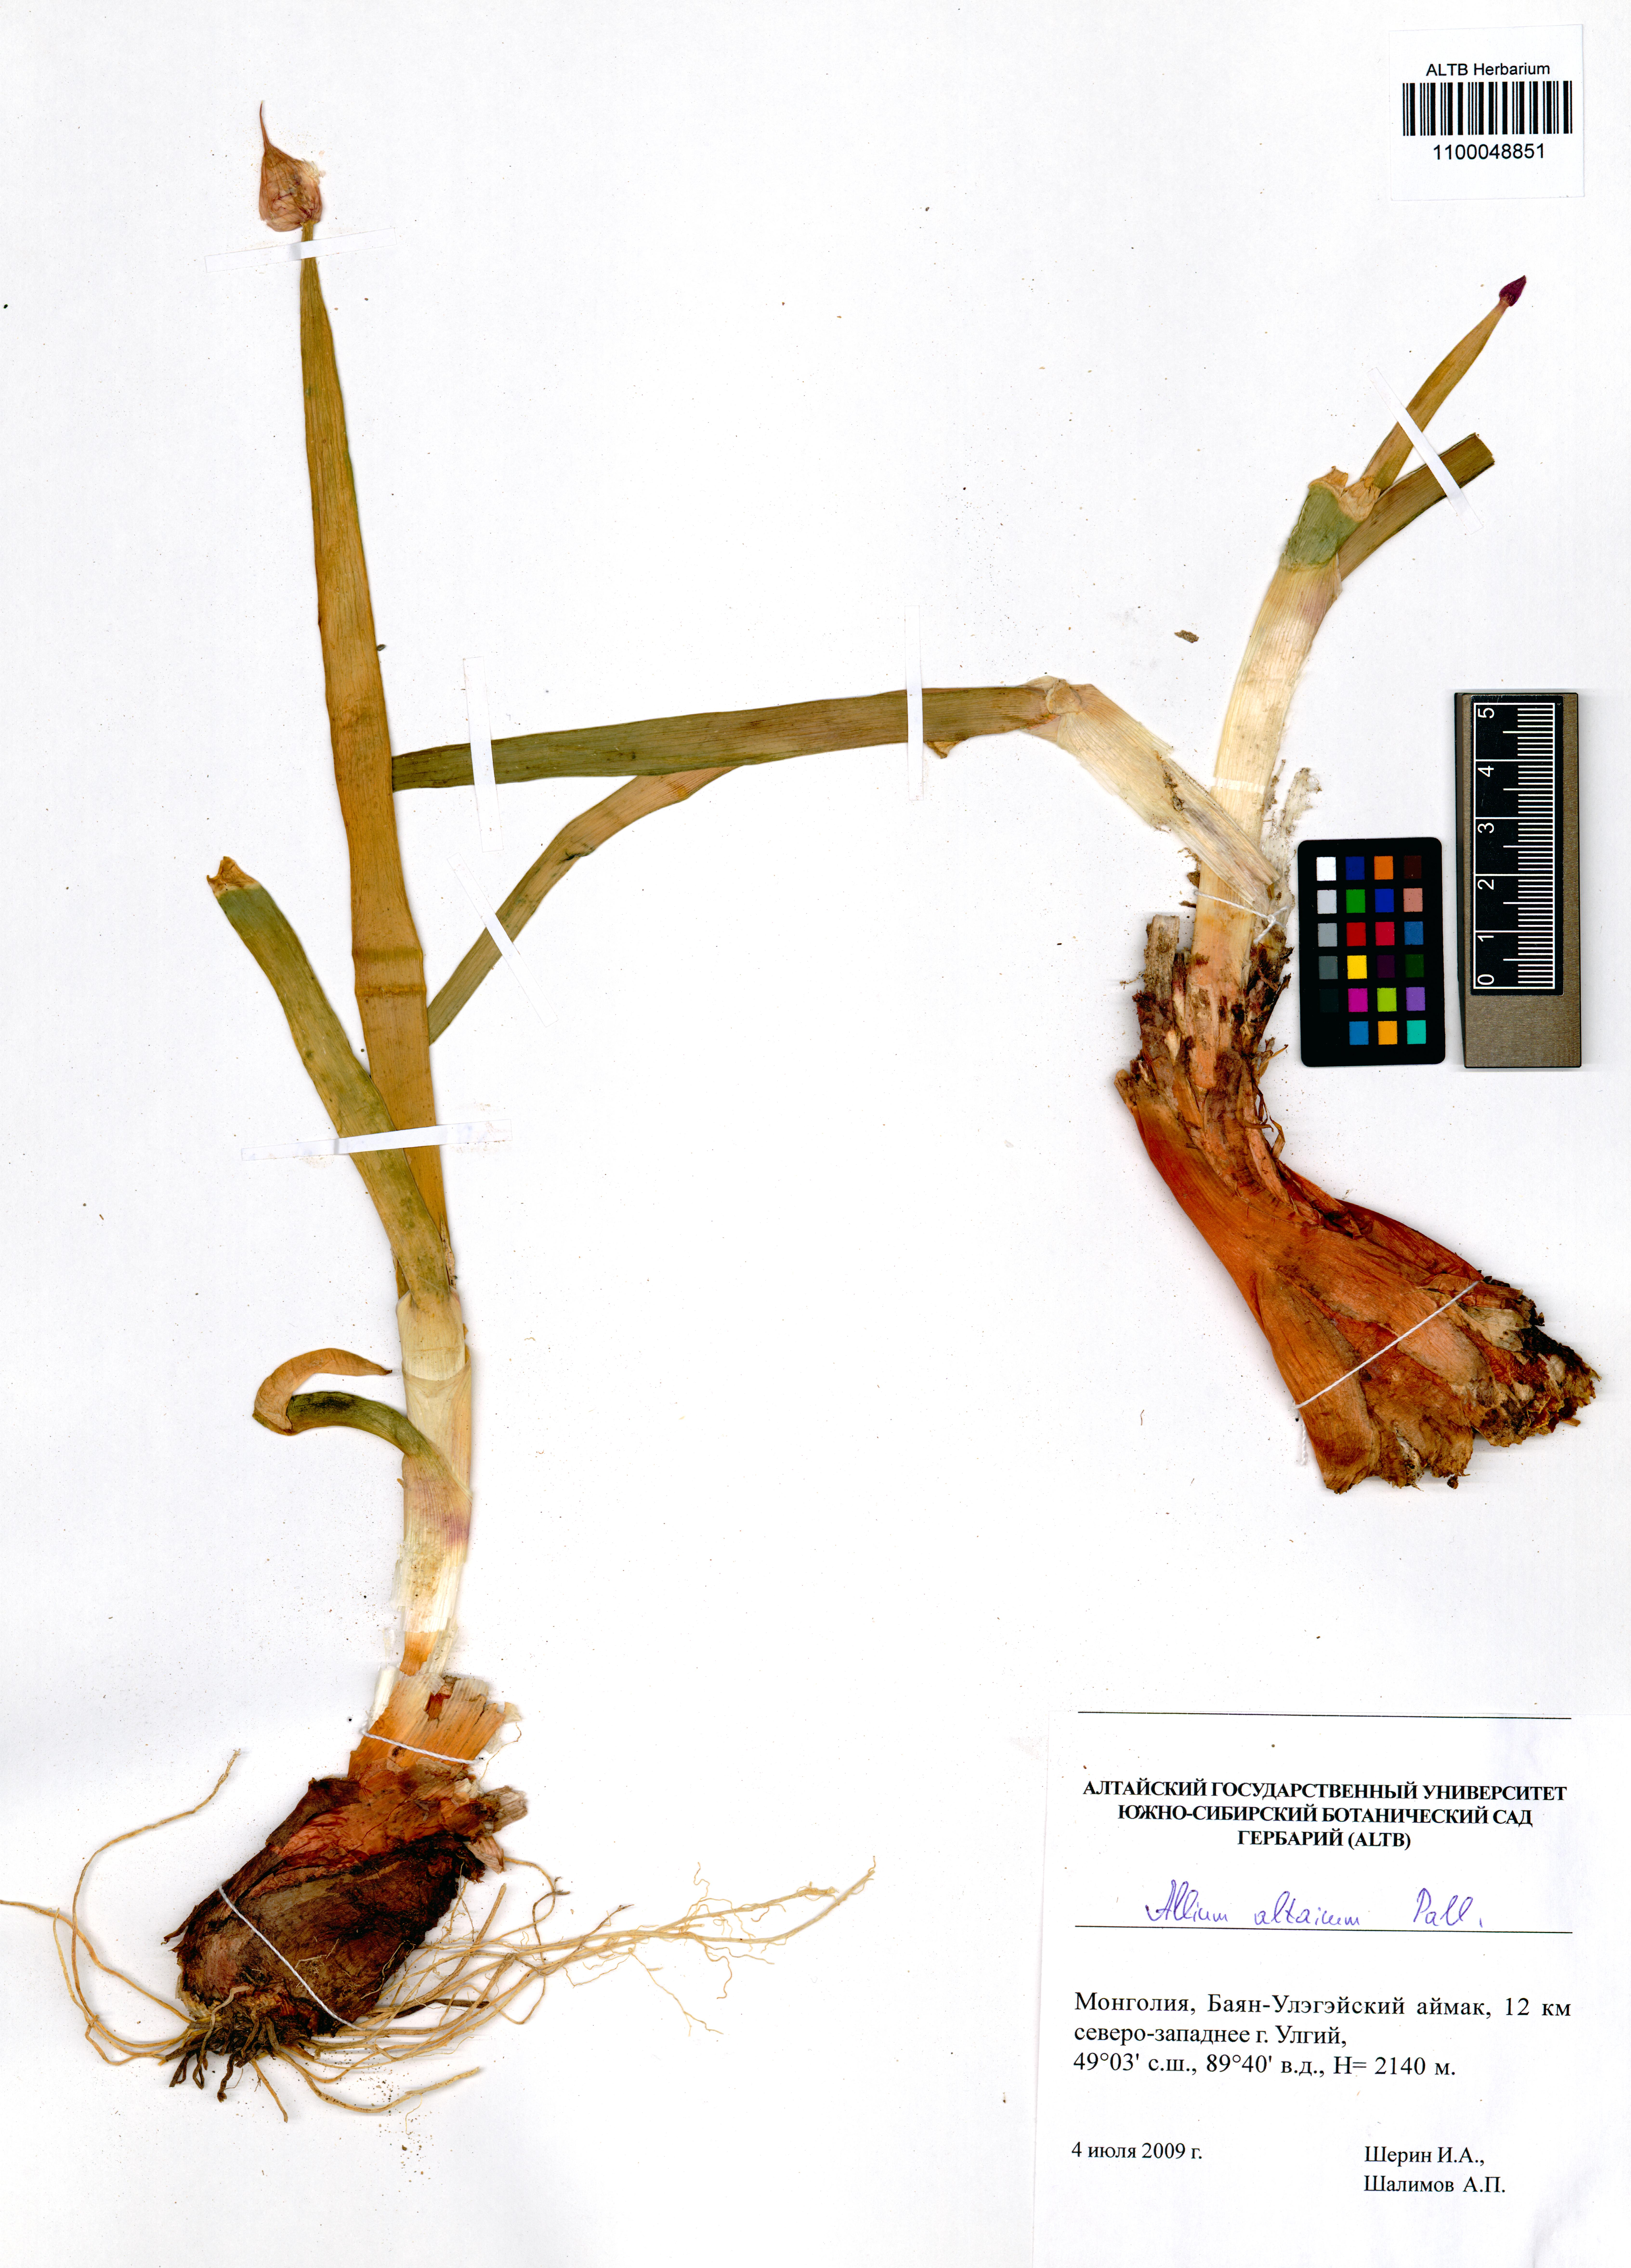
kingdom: Plantae
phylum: Tracheophyta
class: Liliopsida
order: Asparagales
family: Amaryllidaceae
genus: Allium
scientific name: Allium altaicum
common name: Altai onion
